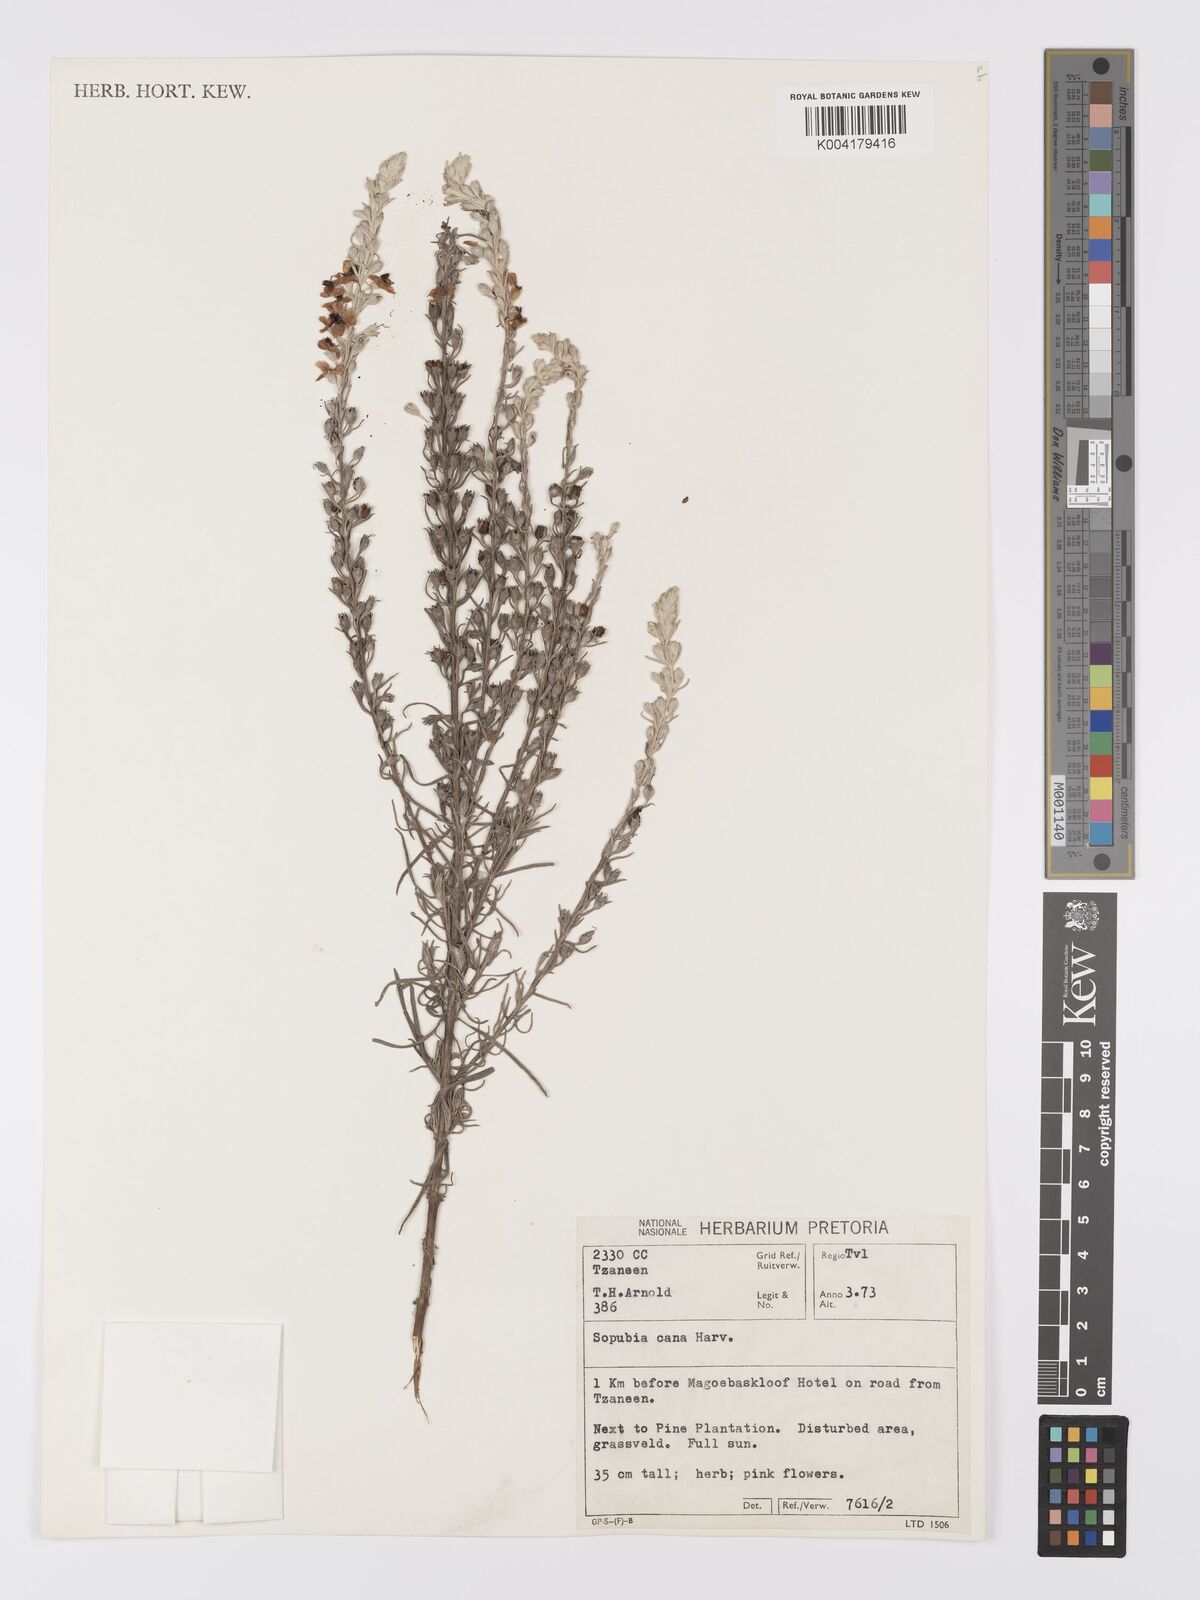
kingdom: Plantae
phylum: Tracheophyta
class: Magnoliopsida
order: Lamiales
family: Orobanchaceae
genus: Sopubia
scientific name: Sopubia cana
